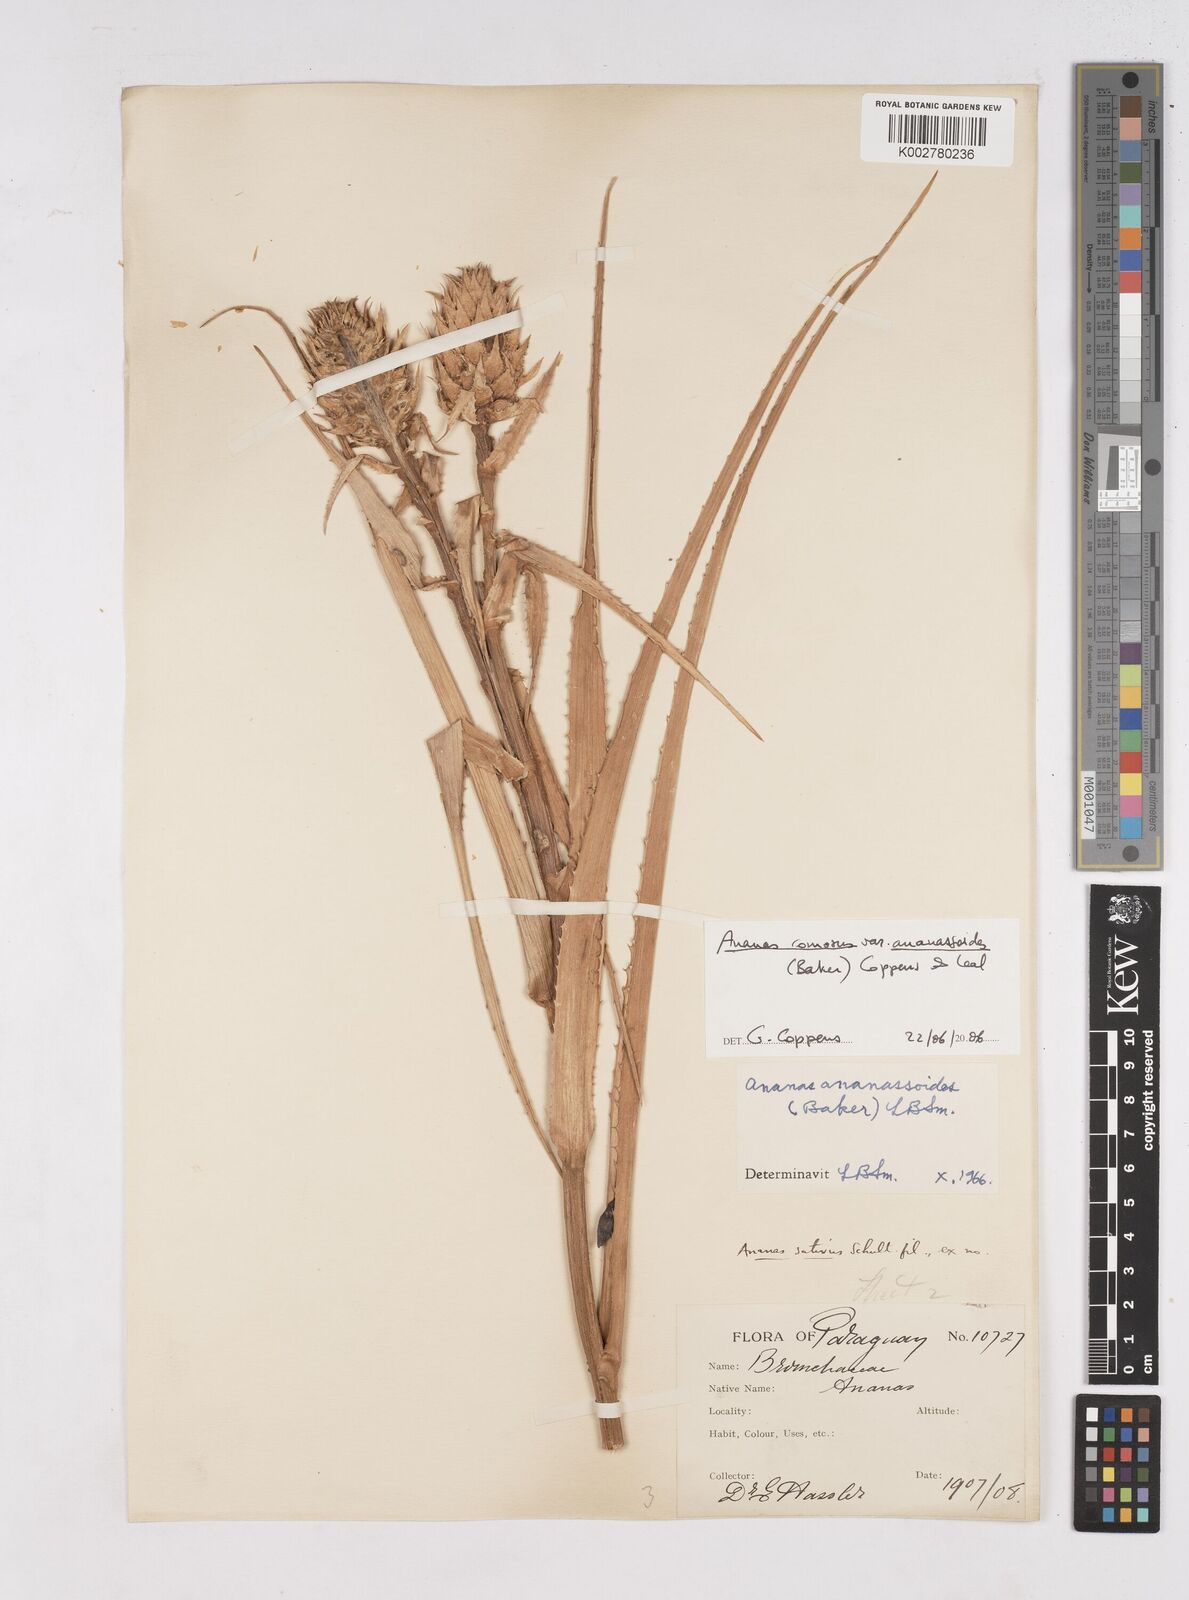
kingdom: Plantae
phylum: Tracheophyta
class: Liliopsida
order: Poales
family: Bromeliaceae
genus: Ananas
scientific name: Ananas comosus
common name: Pineapple
